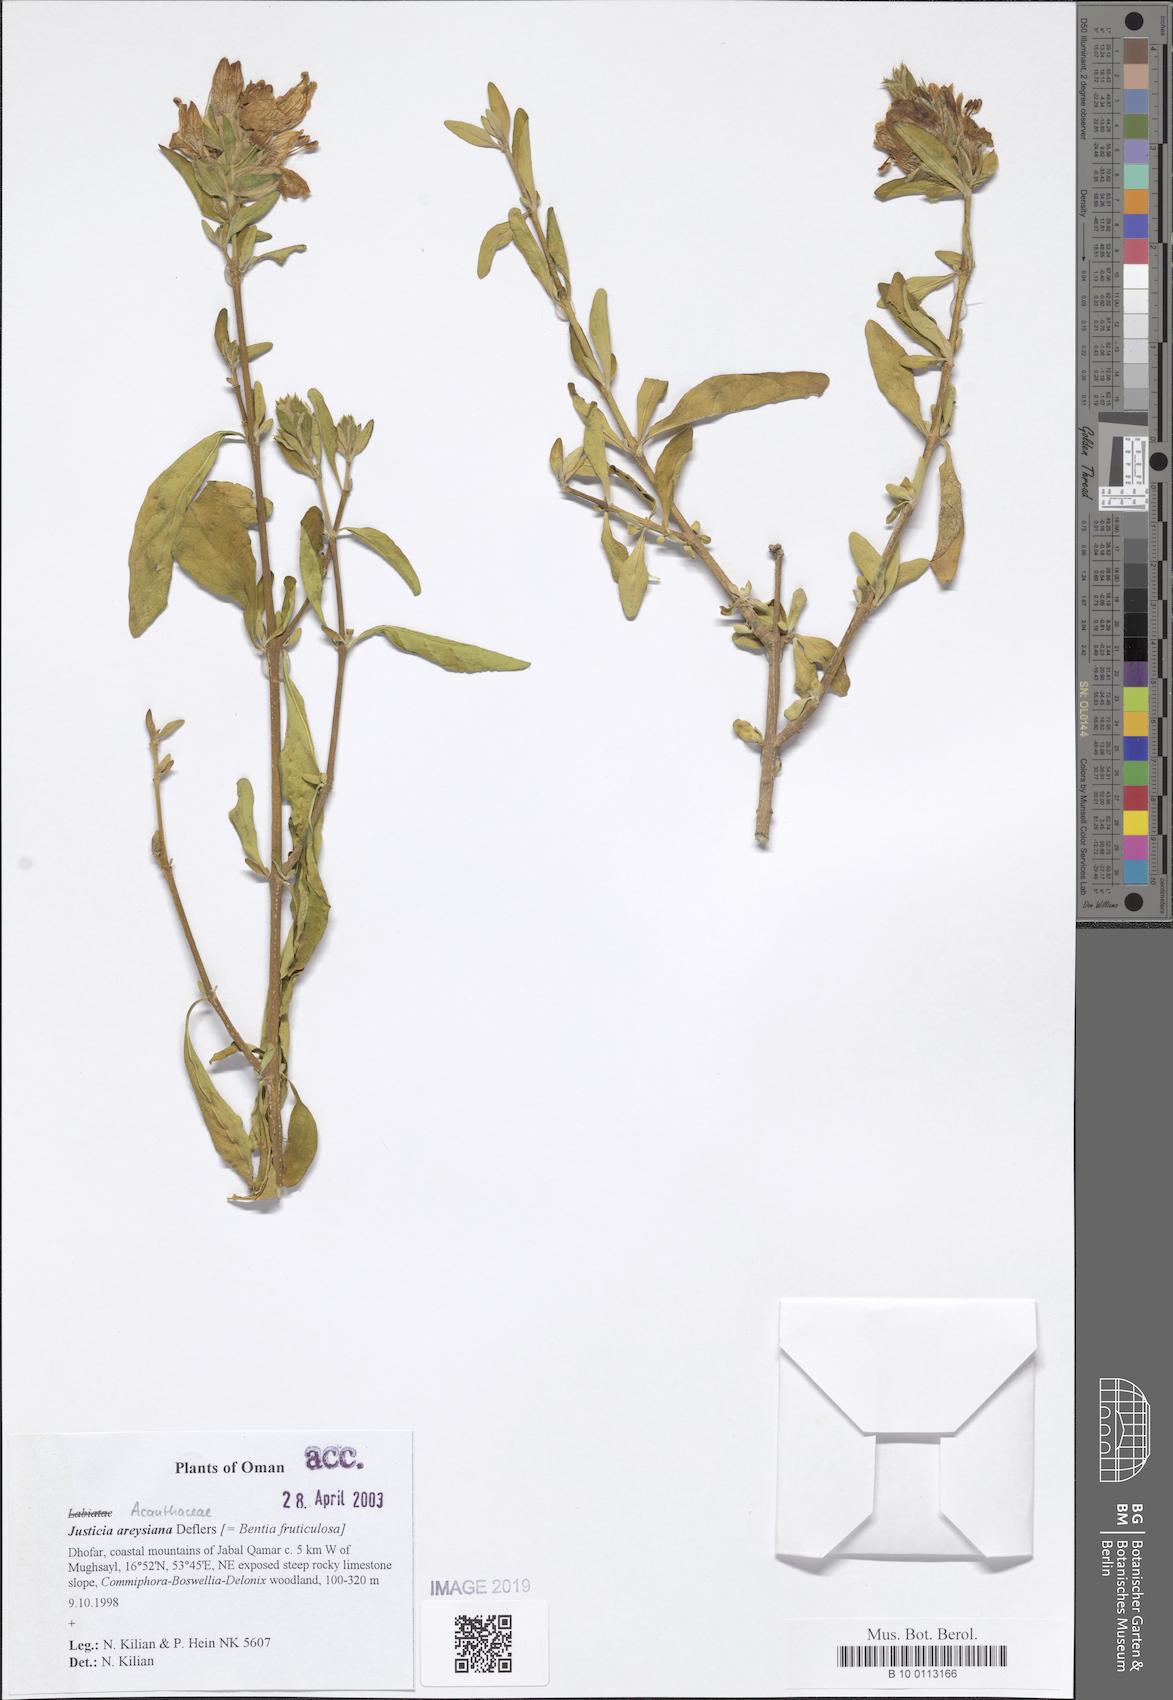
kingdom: Plantae
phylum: Tracheophyta
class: Magnoliopsida
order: Lamiales
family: Acanthaceae
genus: Justicia
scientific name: Justicia areysiana
